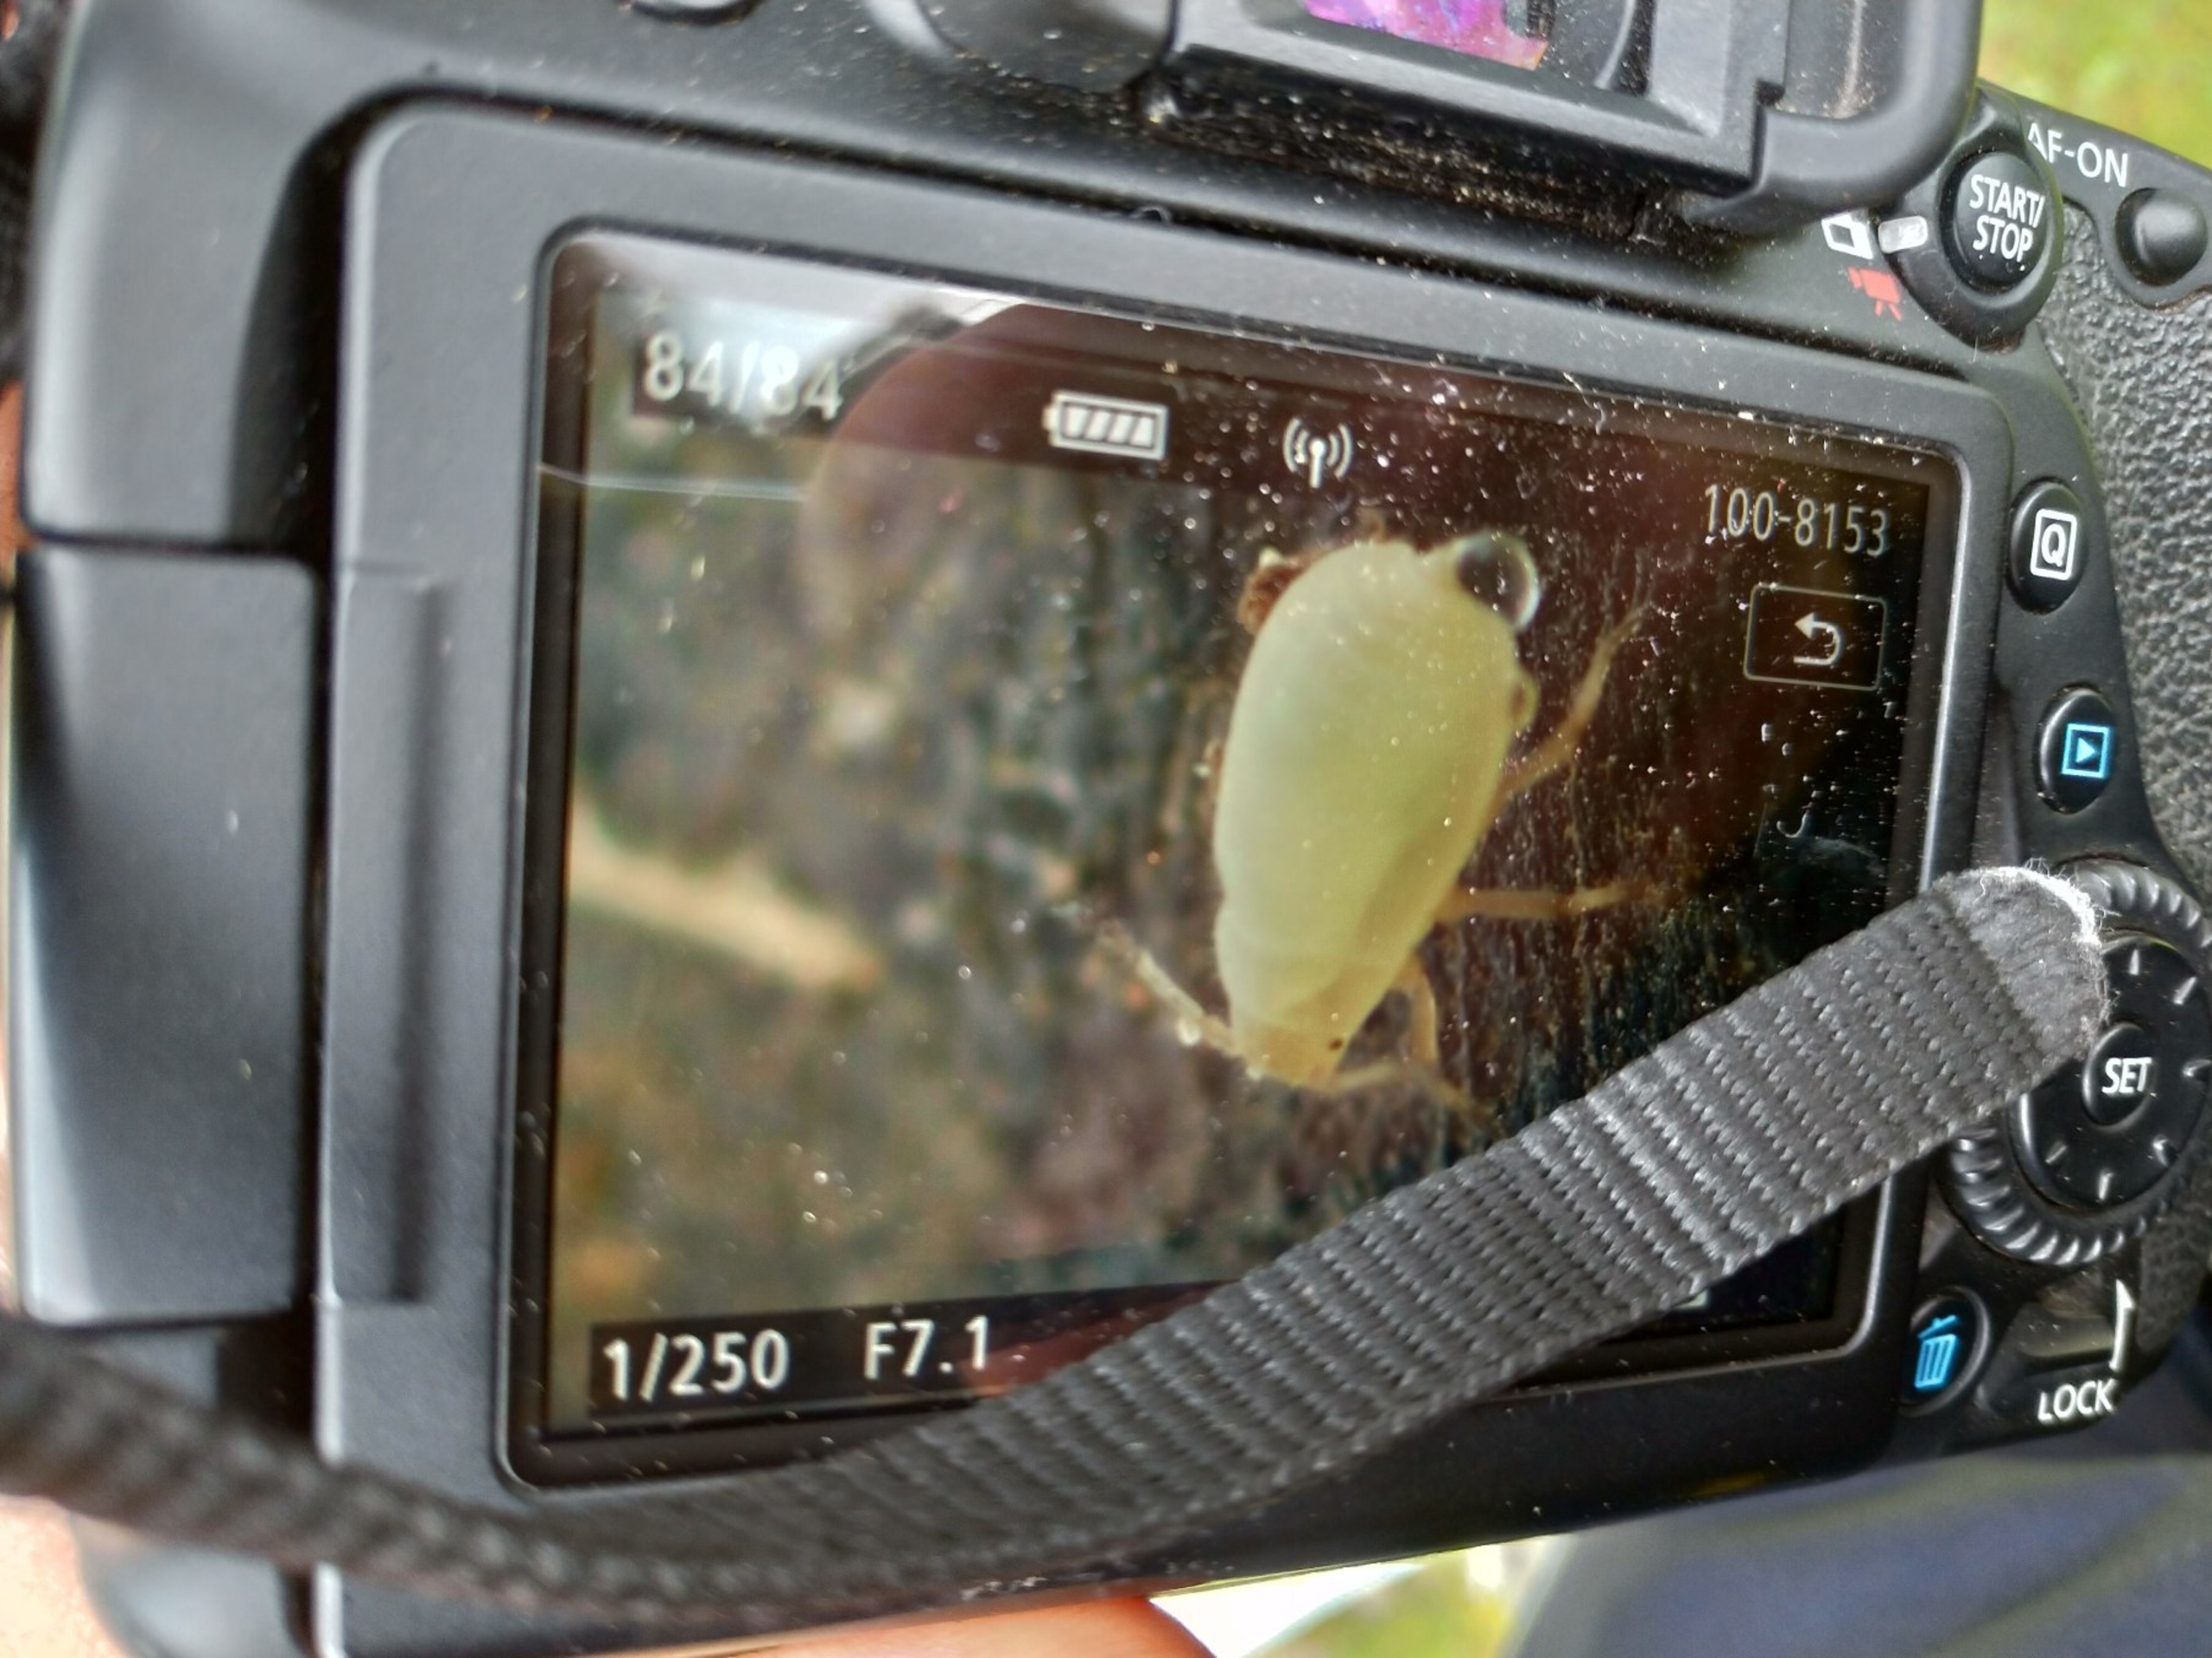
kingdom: Animalia
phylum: Arthropoda
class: Insecta
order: Hemiptera
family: Aphididae
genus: Forda
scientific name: Forda formicaria
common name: Myretuebladlus
